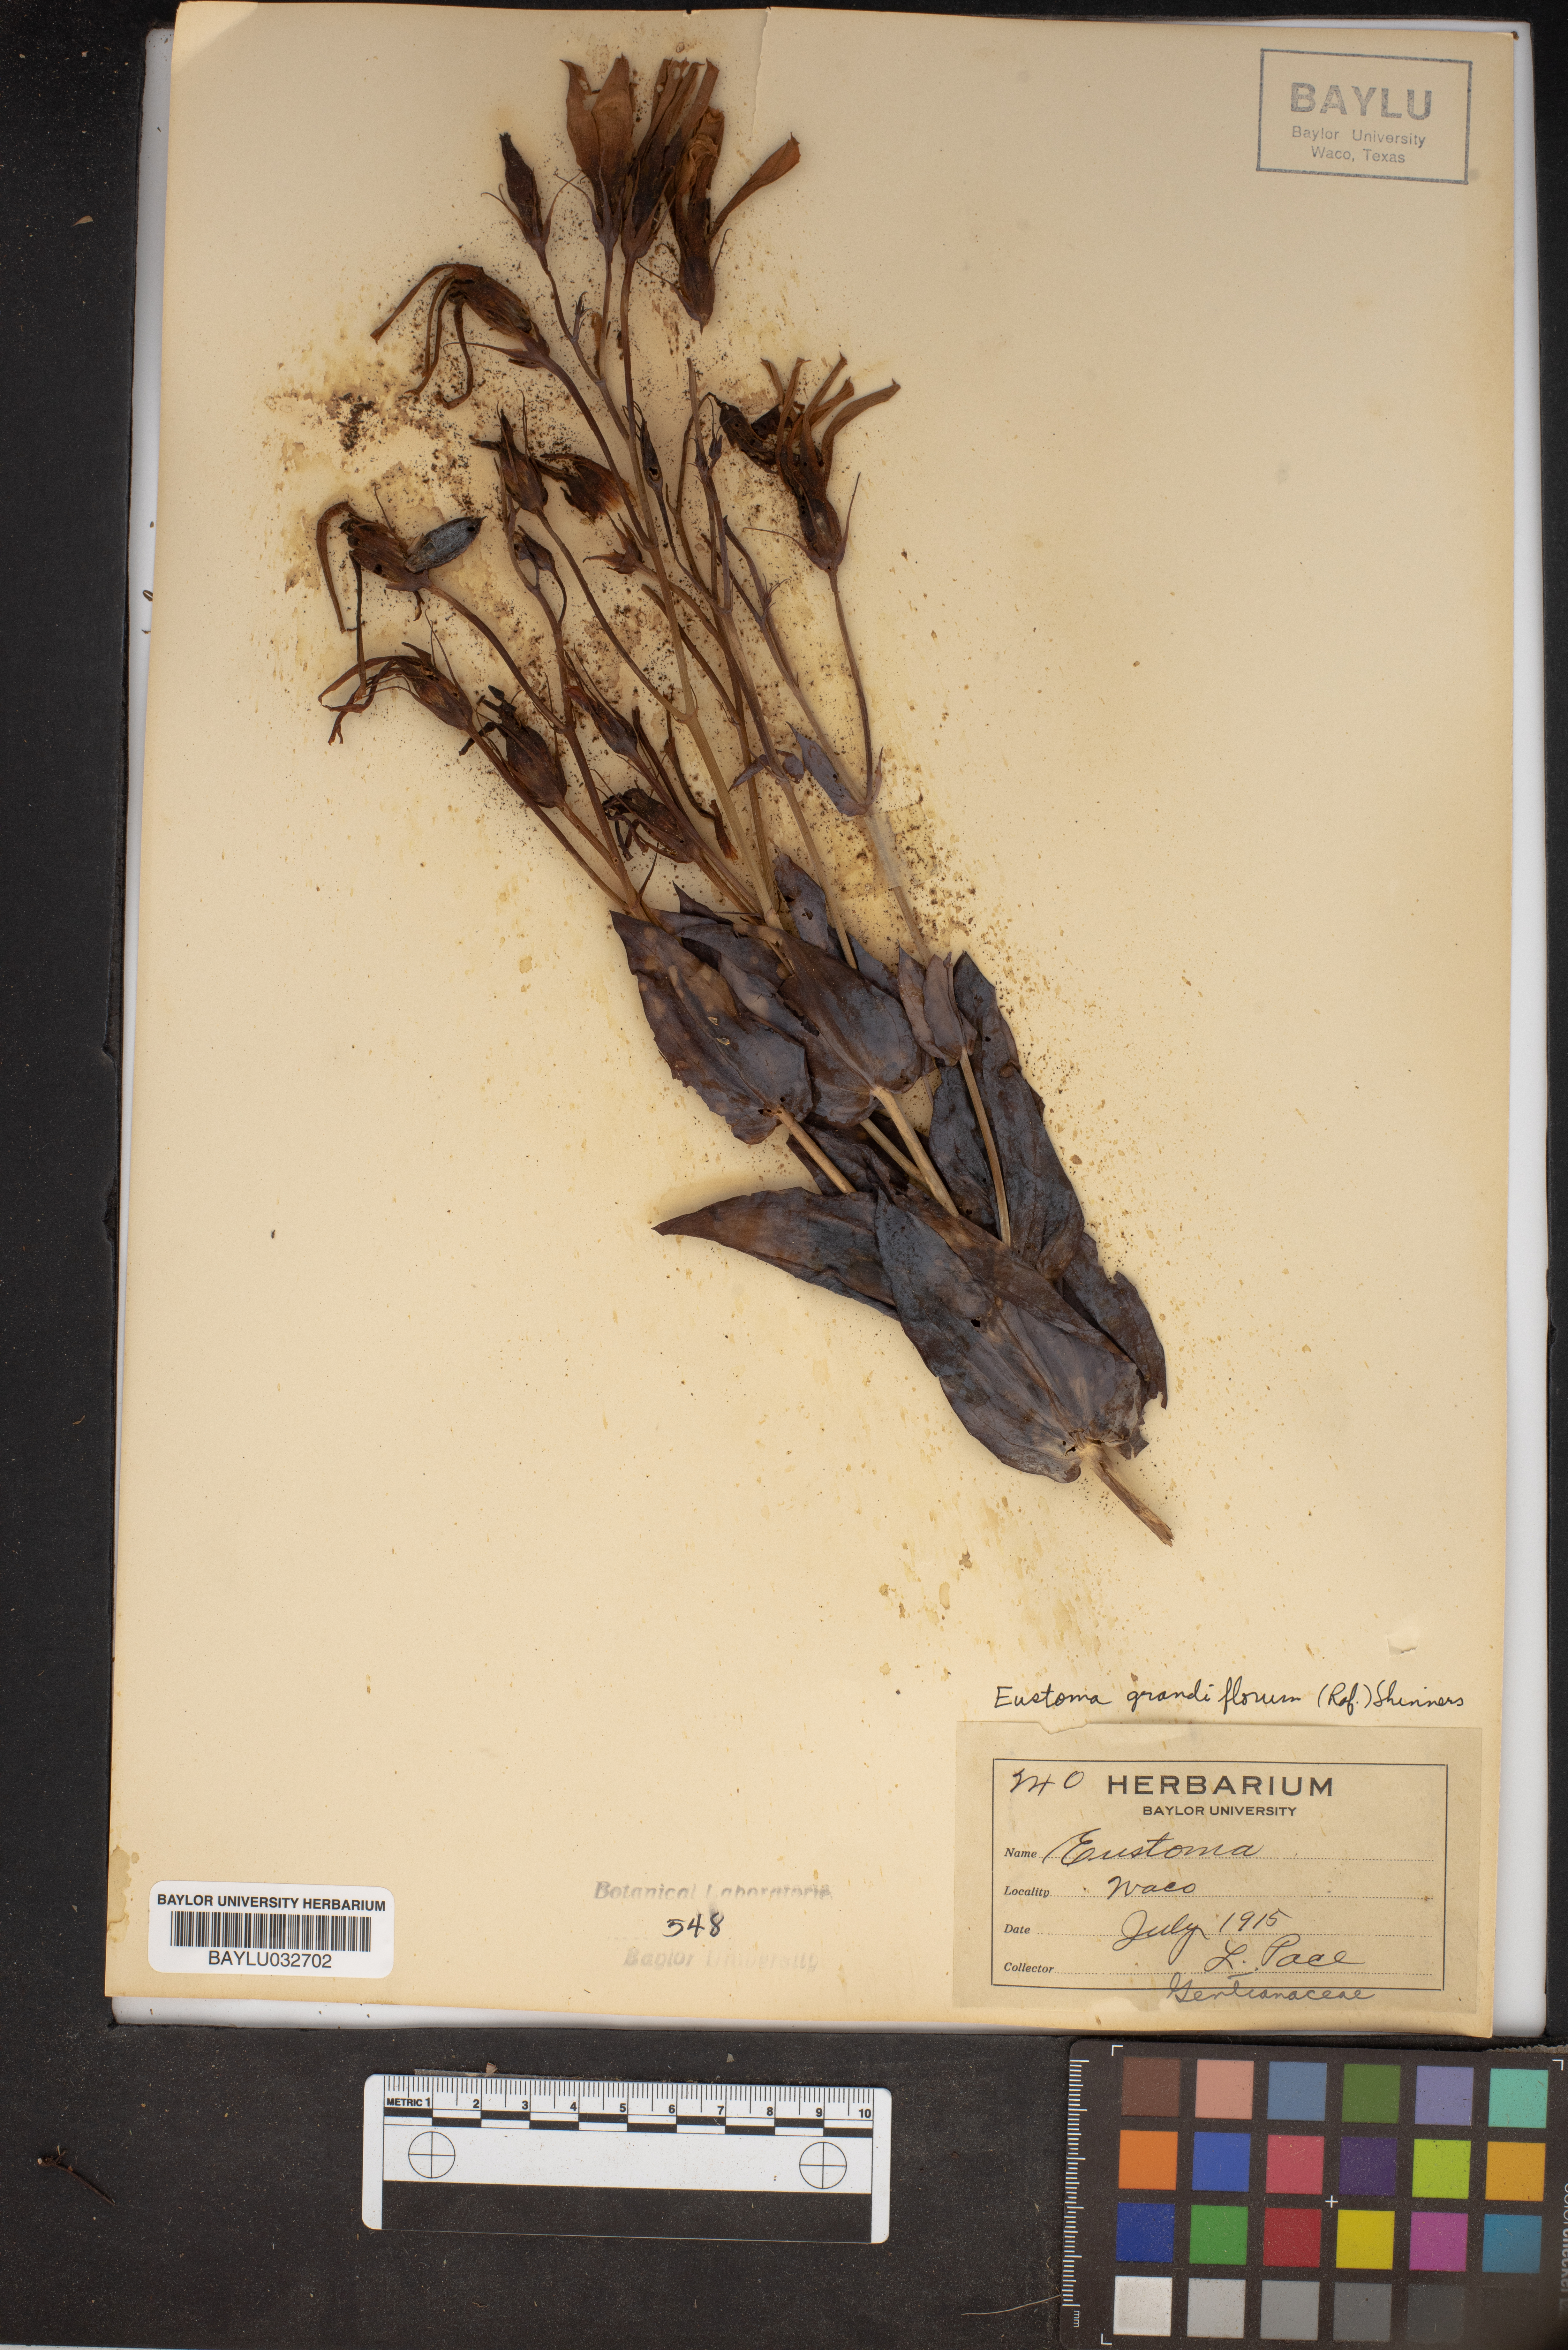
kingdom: Plantae
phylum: Tracheophyta
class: Magnoliopsida
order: Gentianales
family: Gentianaceae
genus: Eustoma
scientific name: Eustoma russellianum
